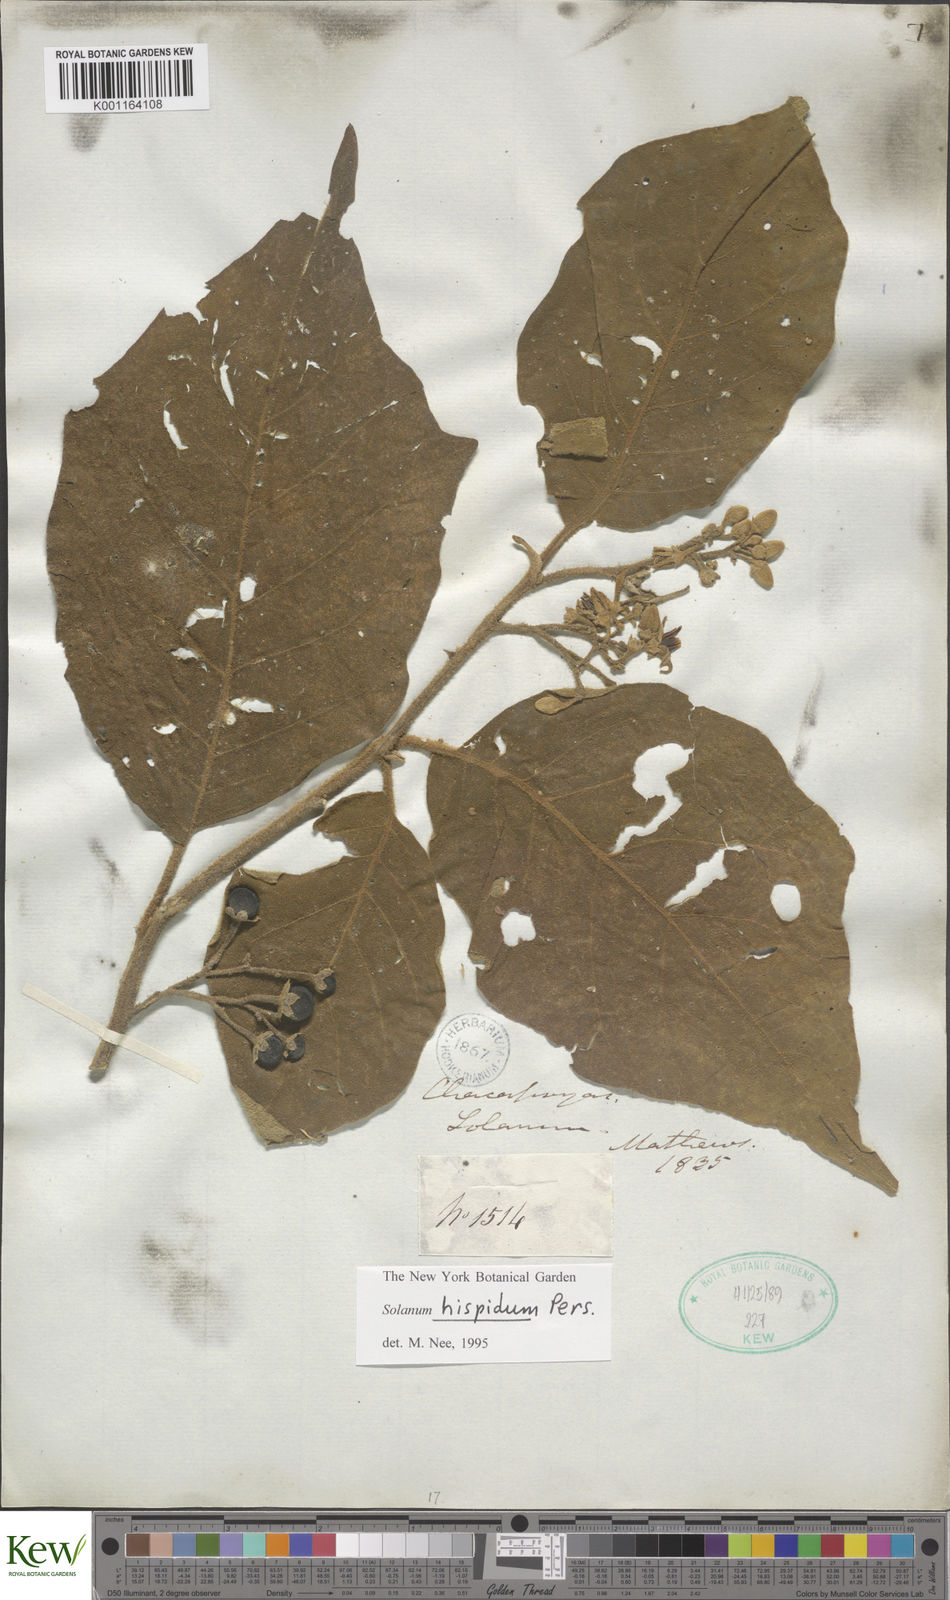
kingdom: Plantae
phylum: Tracheophyta
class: Magnoliopsida
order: Solanales
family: Solanaceae
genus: Solanum
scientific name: Solanum asperolanatum
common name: Devil's-fig
